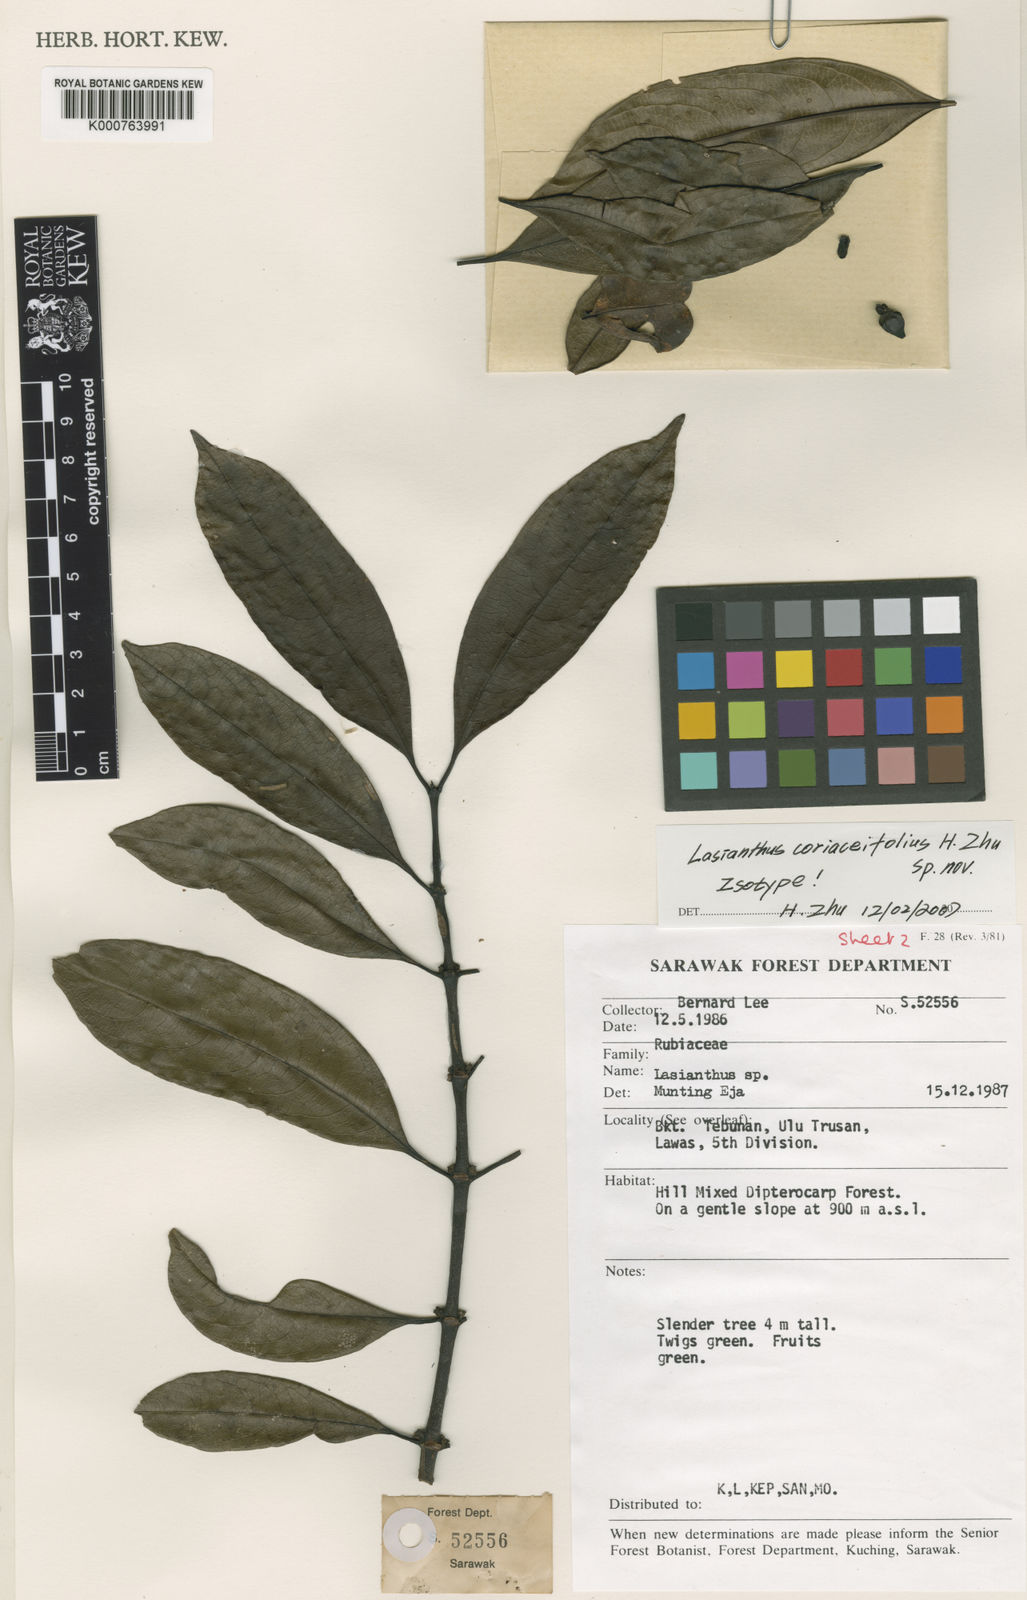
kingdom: Plantae
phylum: Tracheophyta
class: Magnoliopsida
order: Gentianales
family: Rubiaceae
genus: Lasianthus
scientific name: Lasianthus pergamaceus
